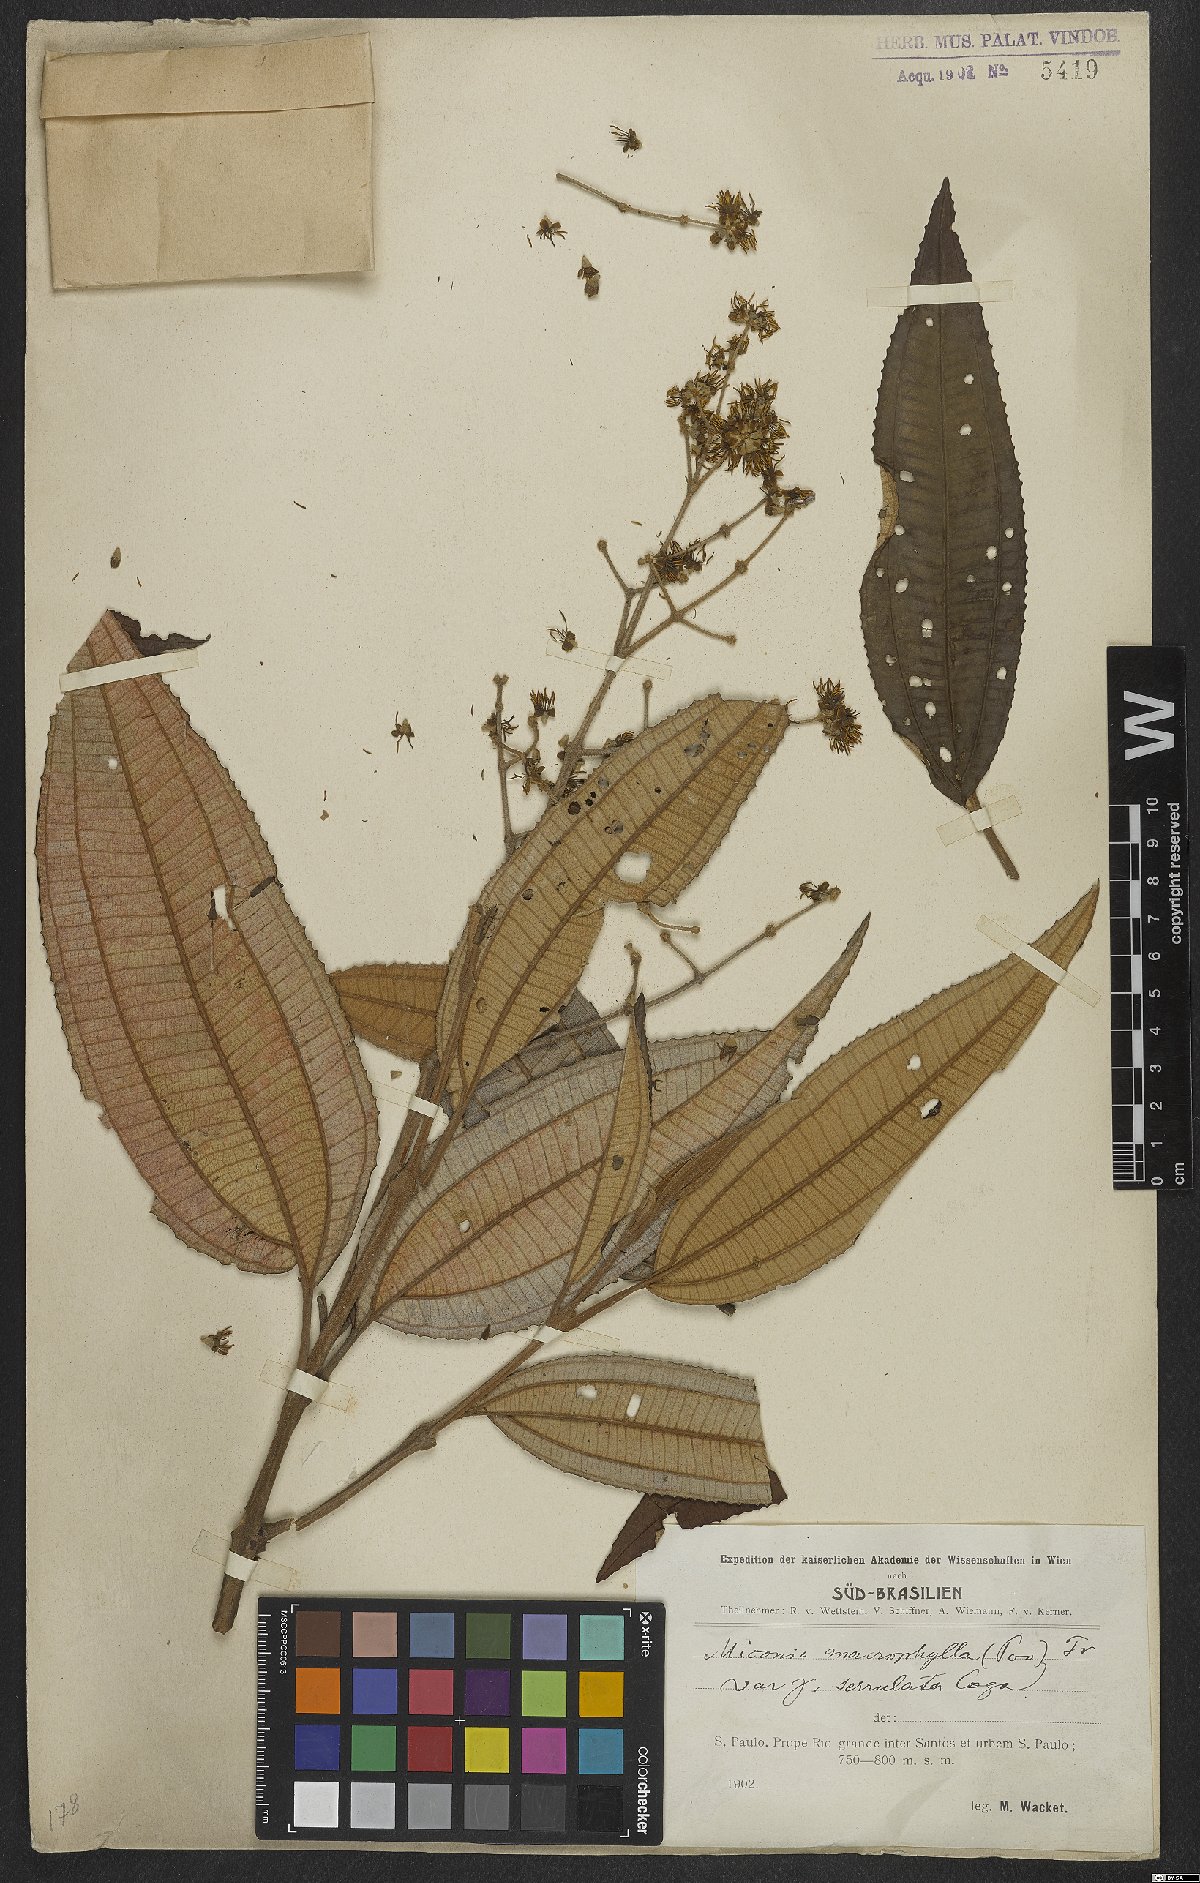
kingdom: Plantae
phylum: Tracheophyta
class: Magnoliopsida
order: Myrtales
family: Melastomataceae
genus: Miconia
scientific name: Miconia prasina
